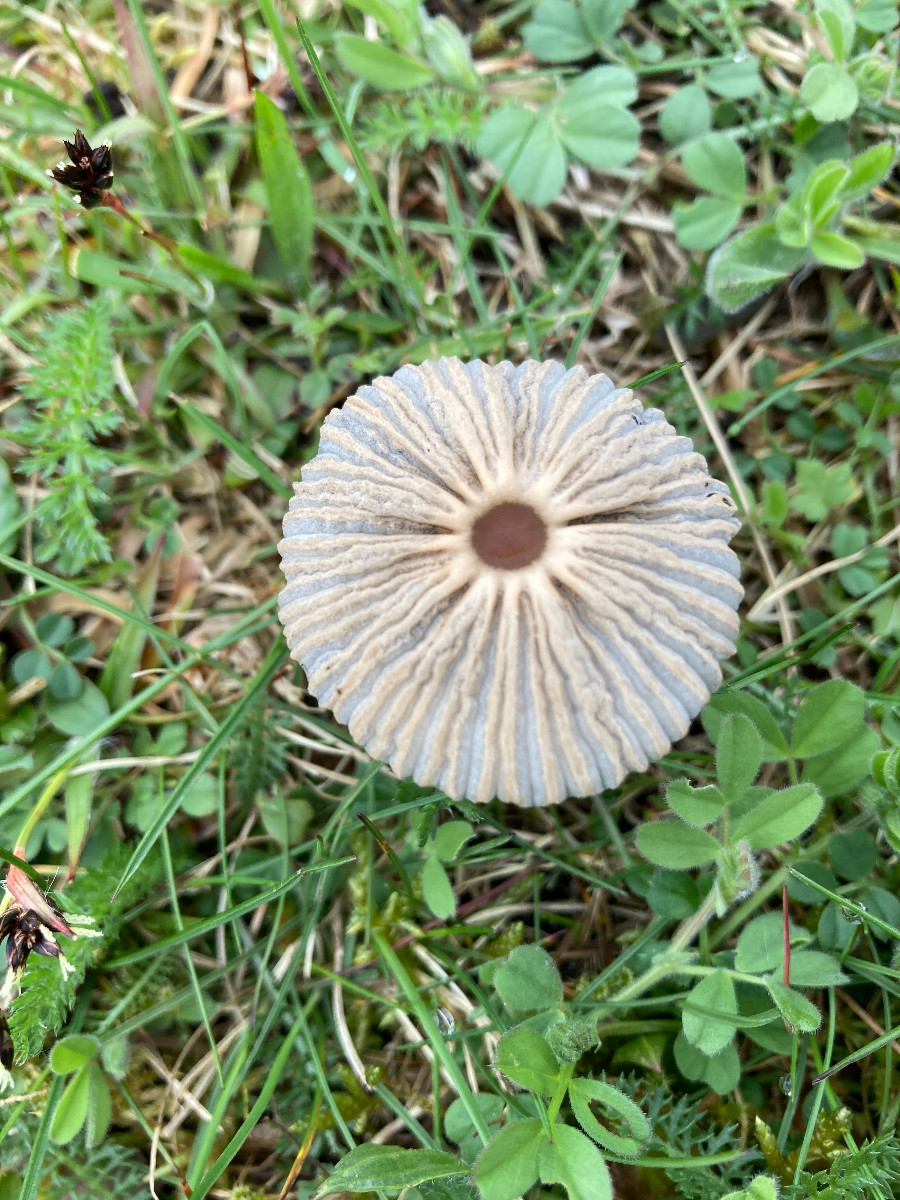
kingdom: Fungi
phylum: Basidiomycota
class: Agaricomycetes
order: Agaricales
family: Psathyrellaceae
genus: Parasola
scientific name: Parasola
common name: hjulhat
